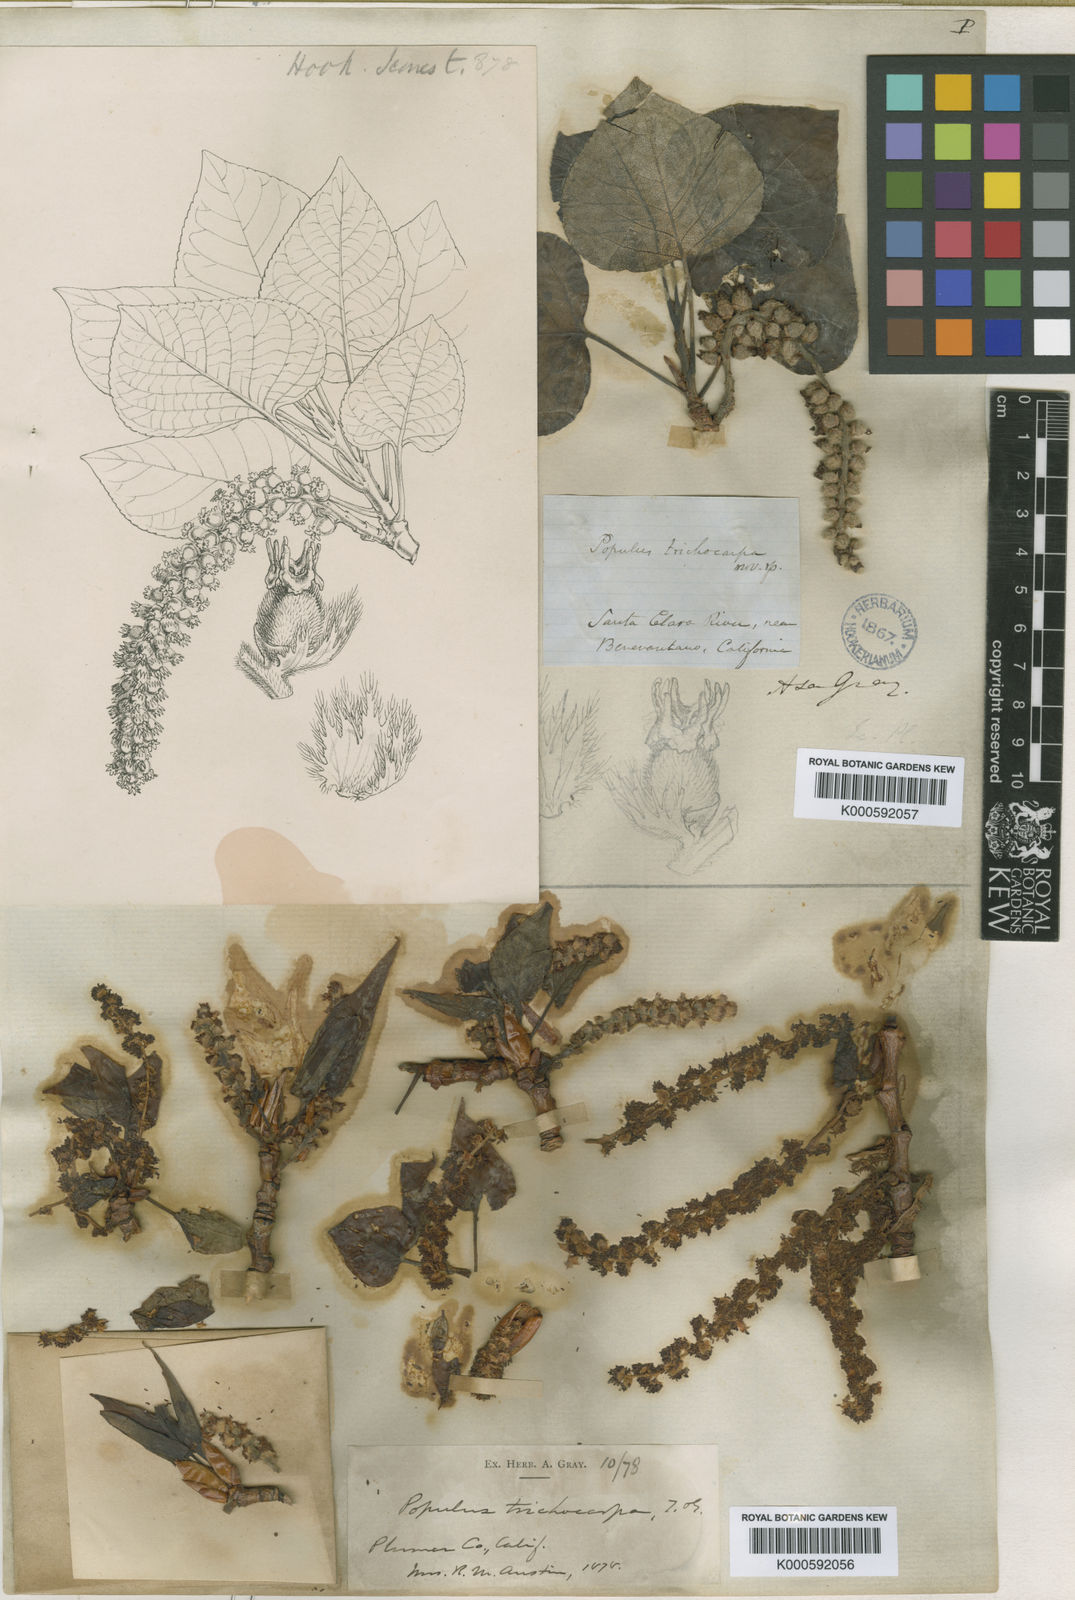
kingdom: Plantae
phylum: Tracheophyta
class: Magnoliopsida
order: Malpighiales
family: Salicaceae
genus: Populus
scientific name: Populus
